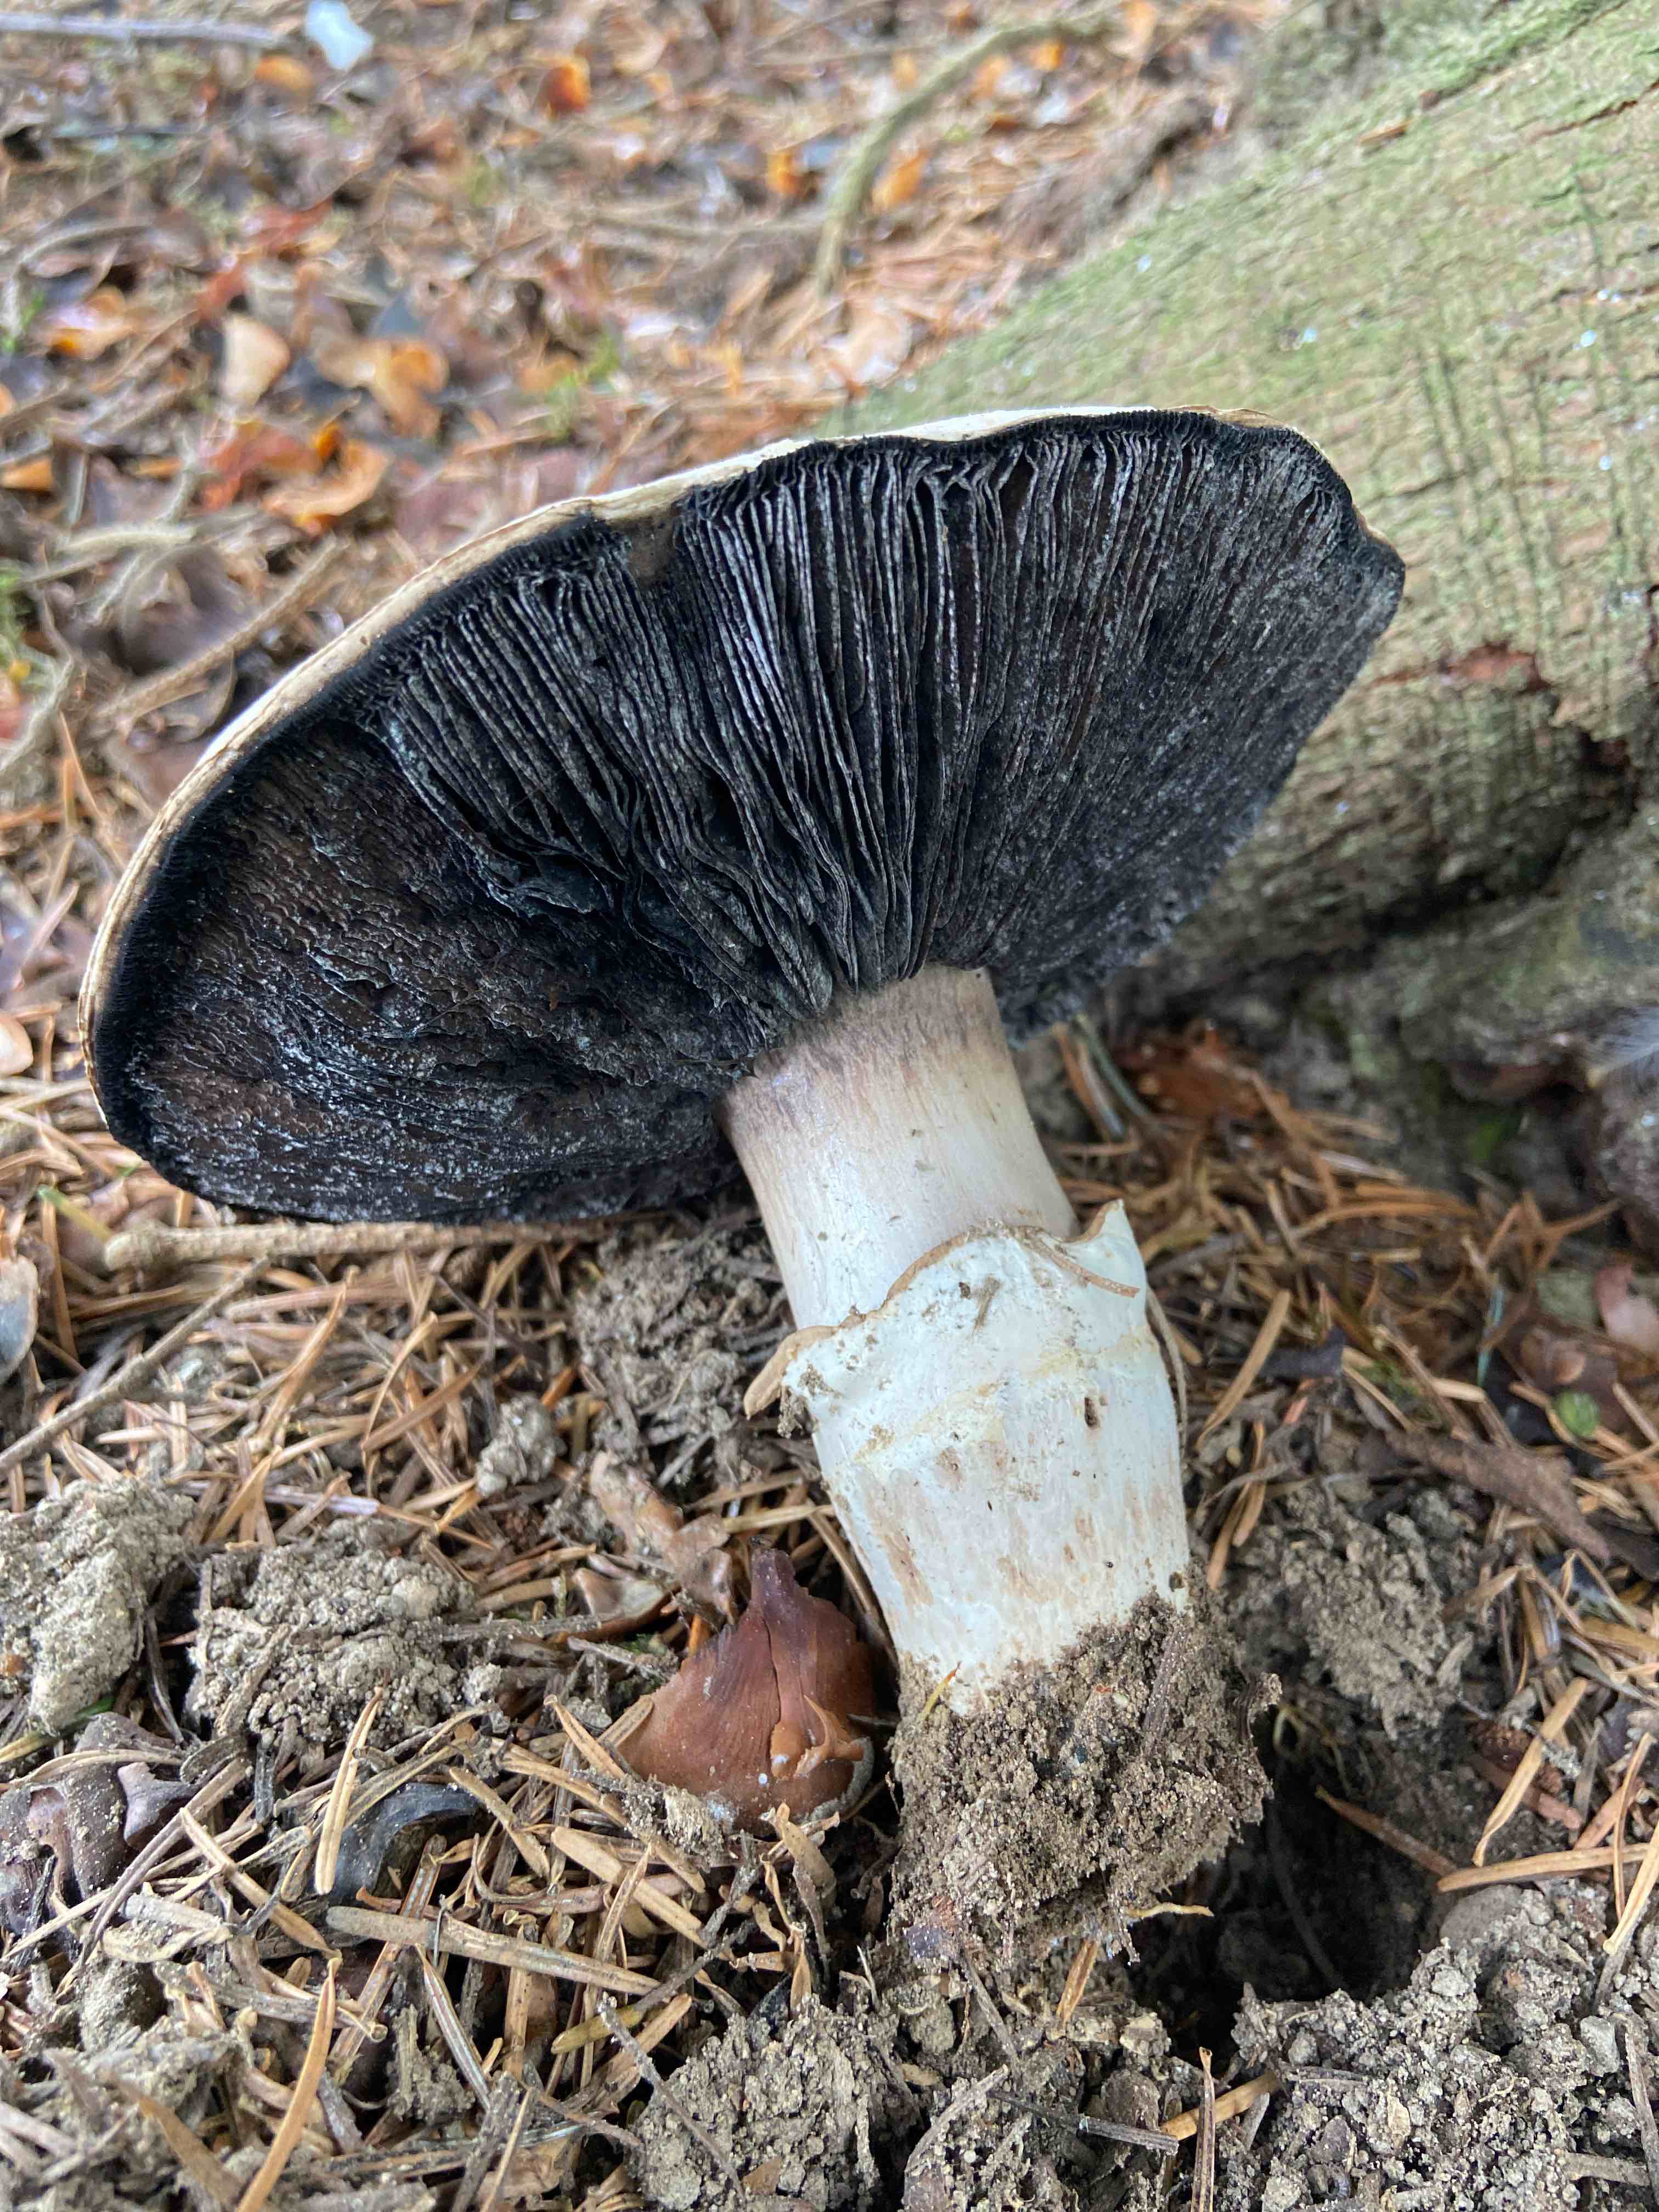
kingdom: Fungi
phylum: Basidiomycota
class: Agaricomycetes
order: Agaricales
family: Agaricaceae
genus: Agaricus
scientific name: Agaricus
